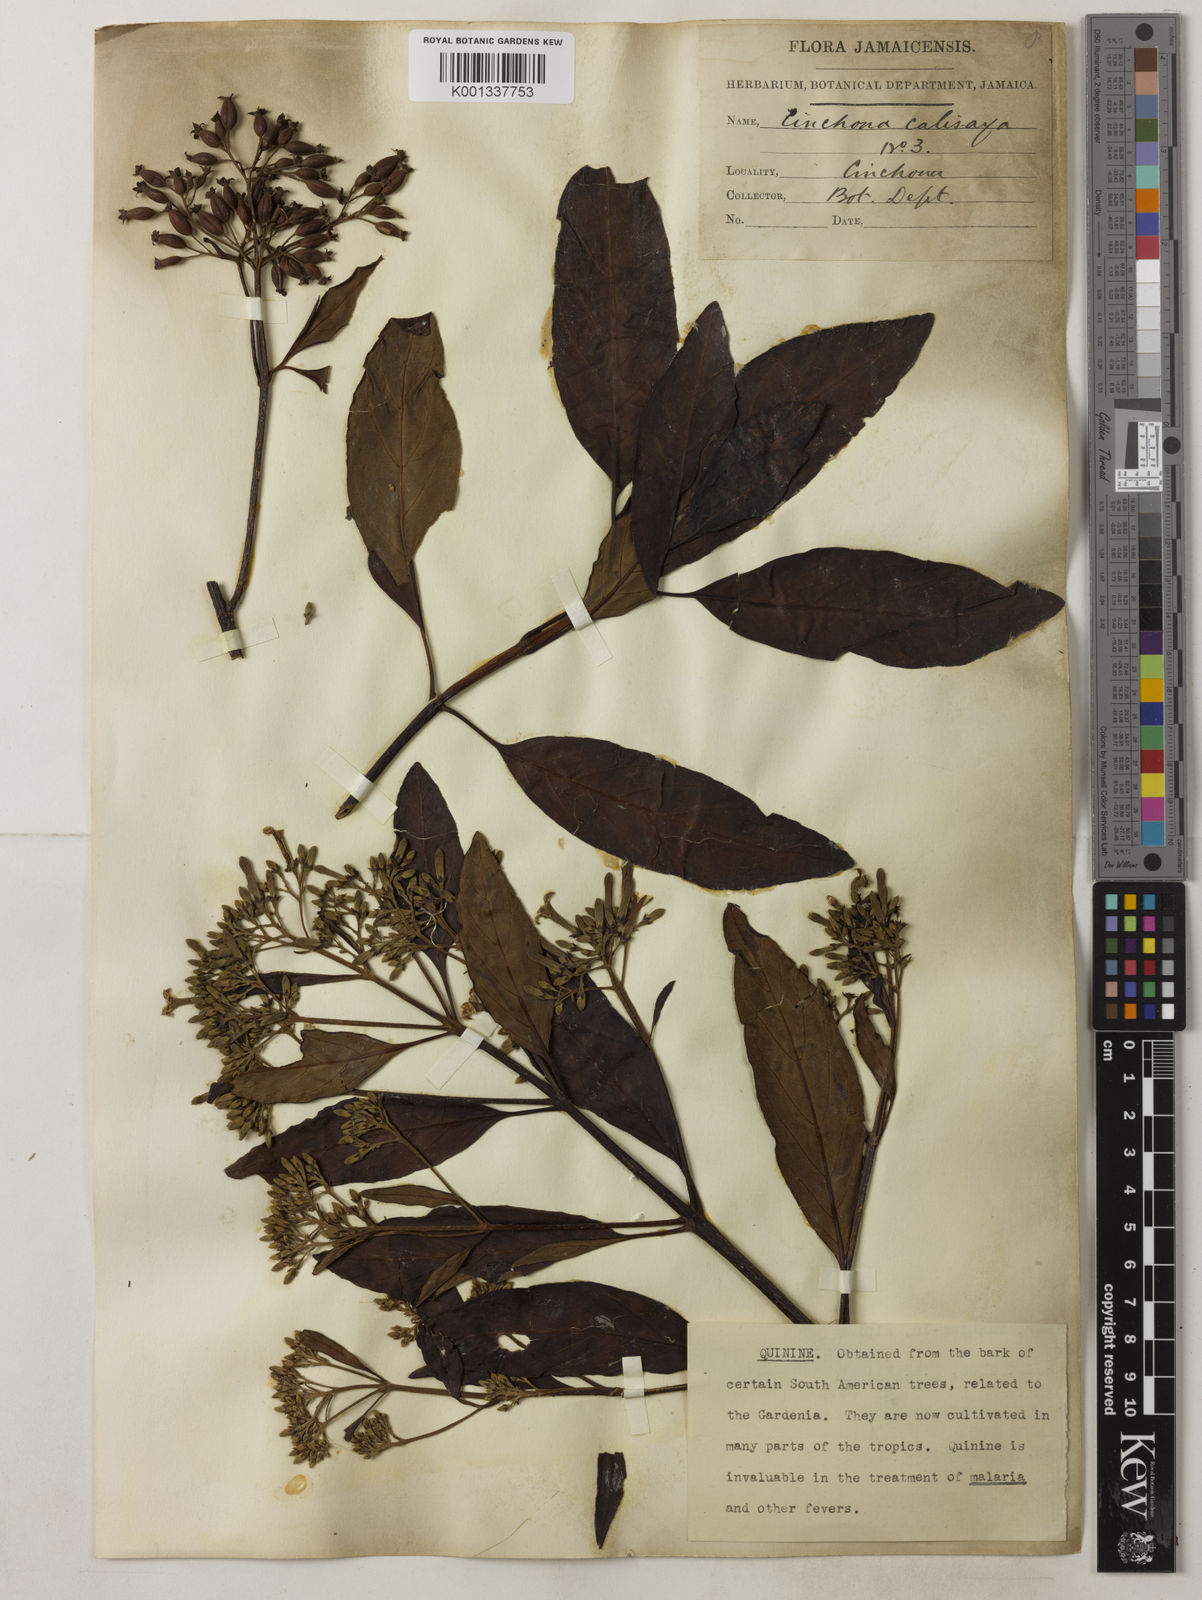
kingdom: Plantae
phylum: Tracheophyta
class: Magnoliopsida
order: Gentianales
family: Rubiaceae
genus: Cinchona
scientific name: Cinchona calisaya
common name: Ledgerbark
